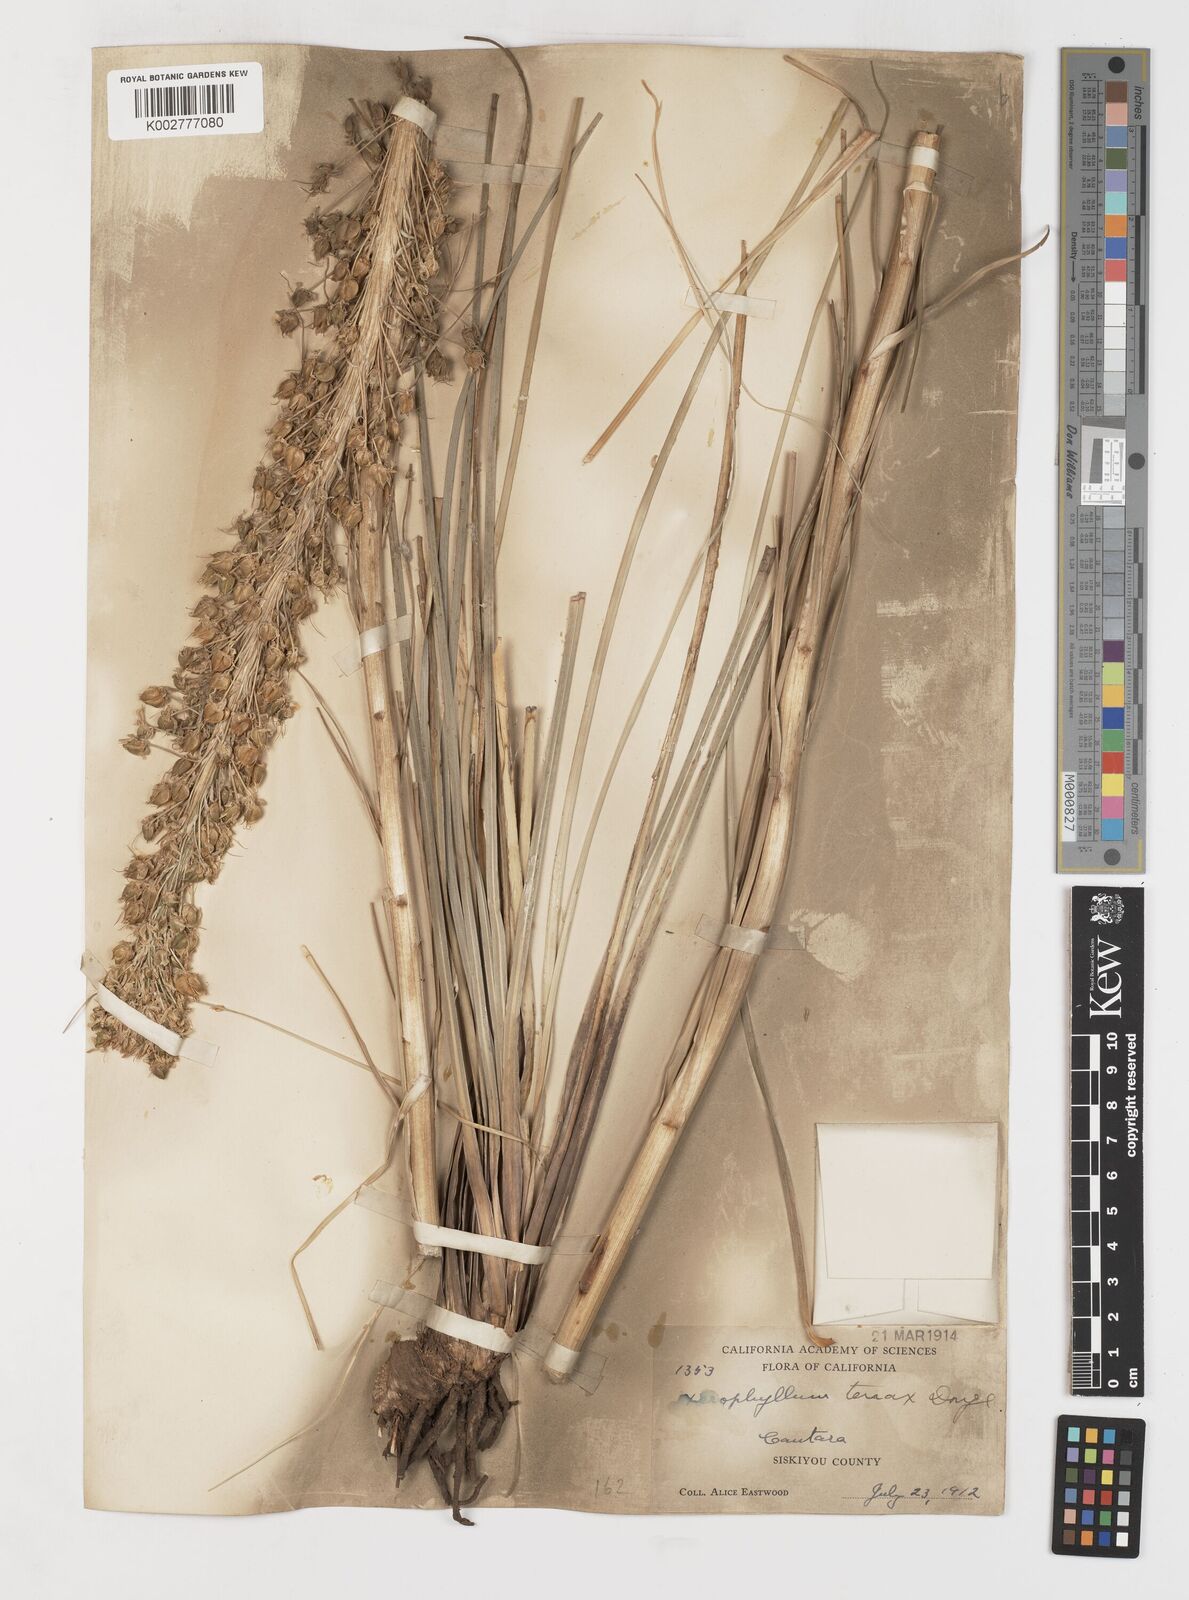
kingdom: Plantae
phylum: Tracheophyta
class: Liliopsida
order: Liliales
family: Melanthiaceae
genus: Xerophyllum
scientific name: Xerophyllum tenax
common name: Bear-grass
